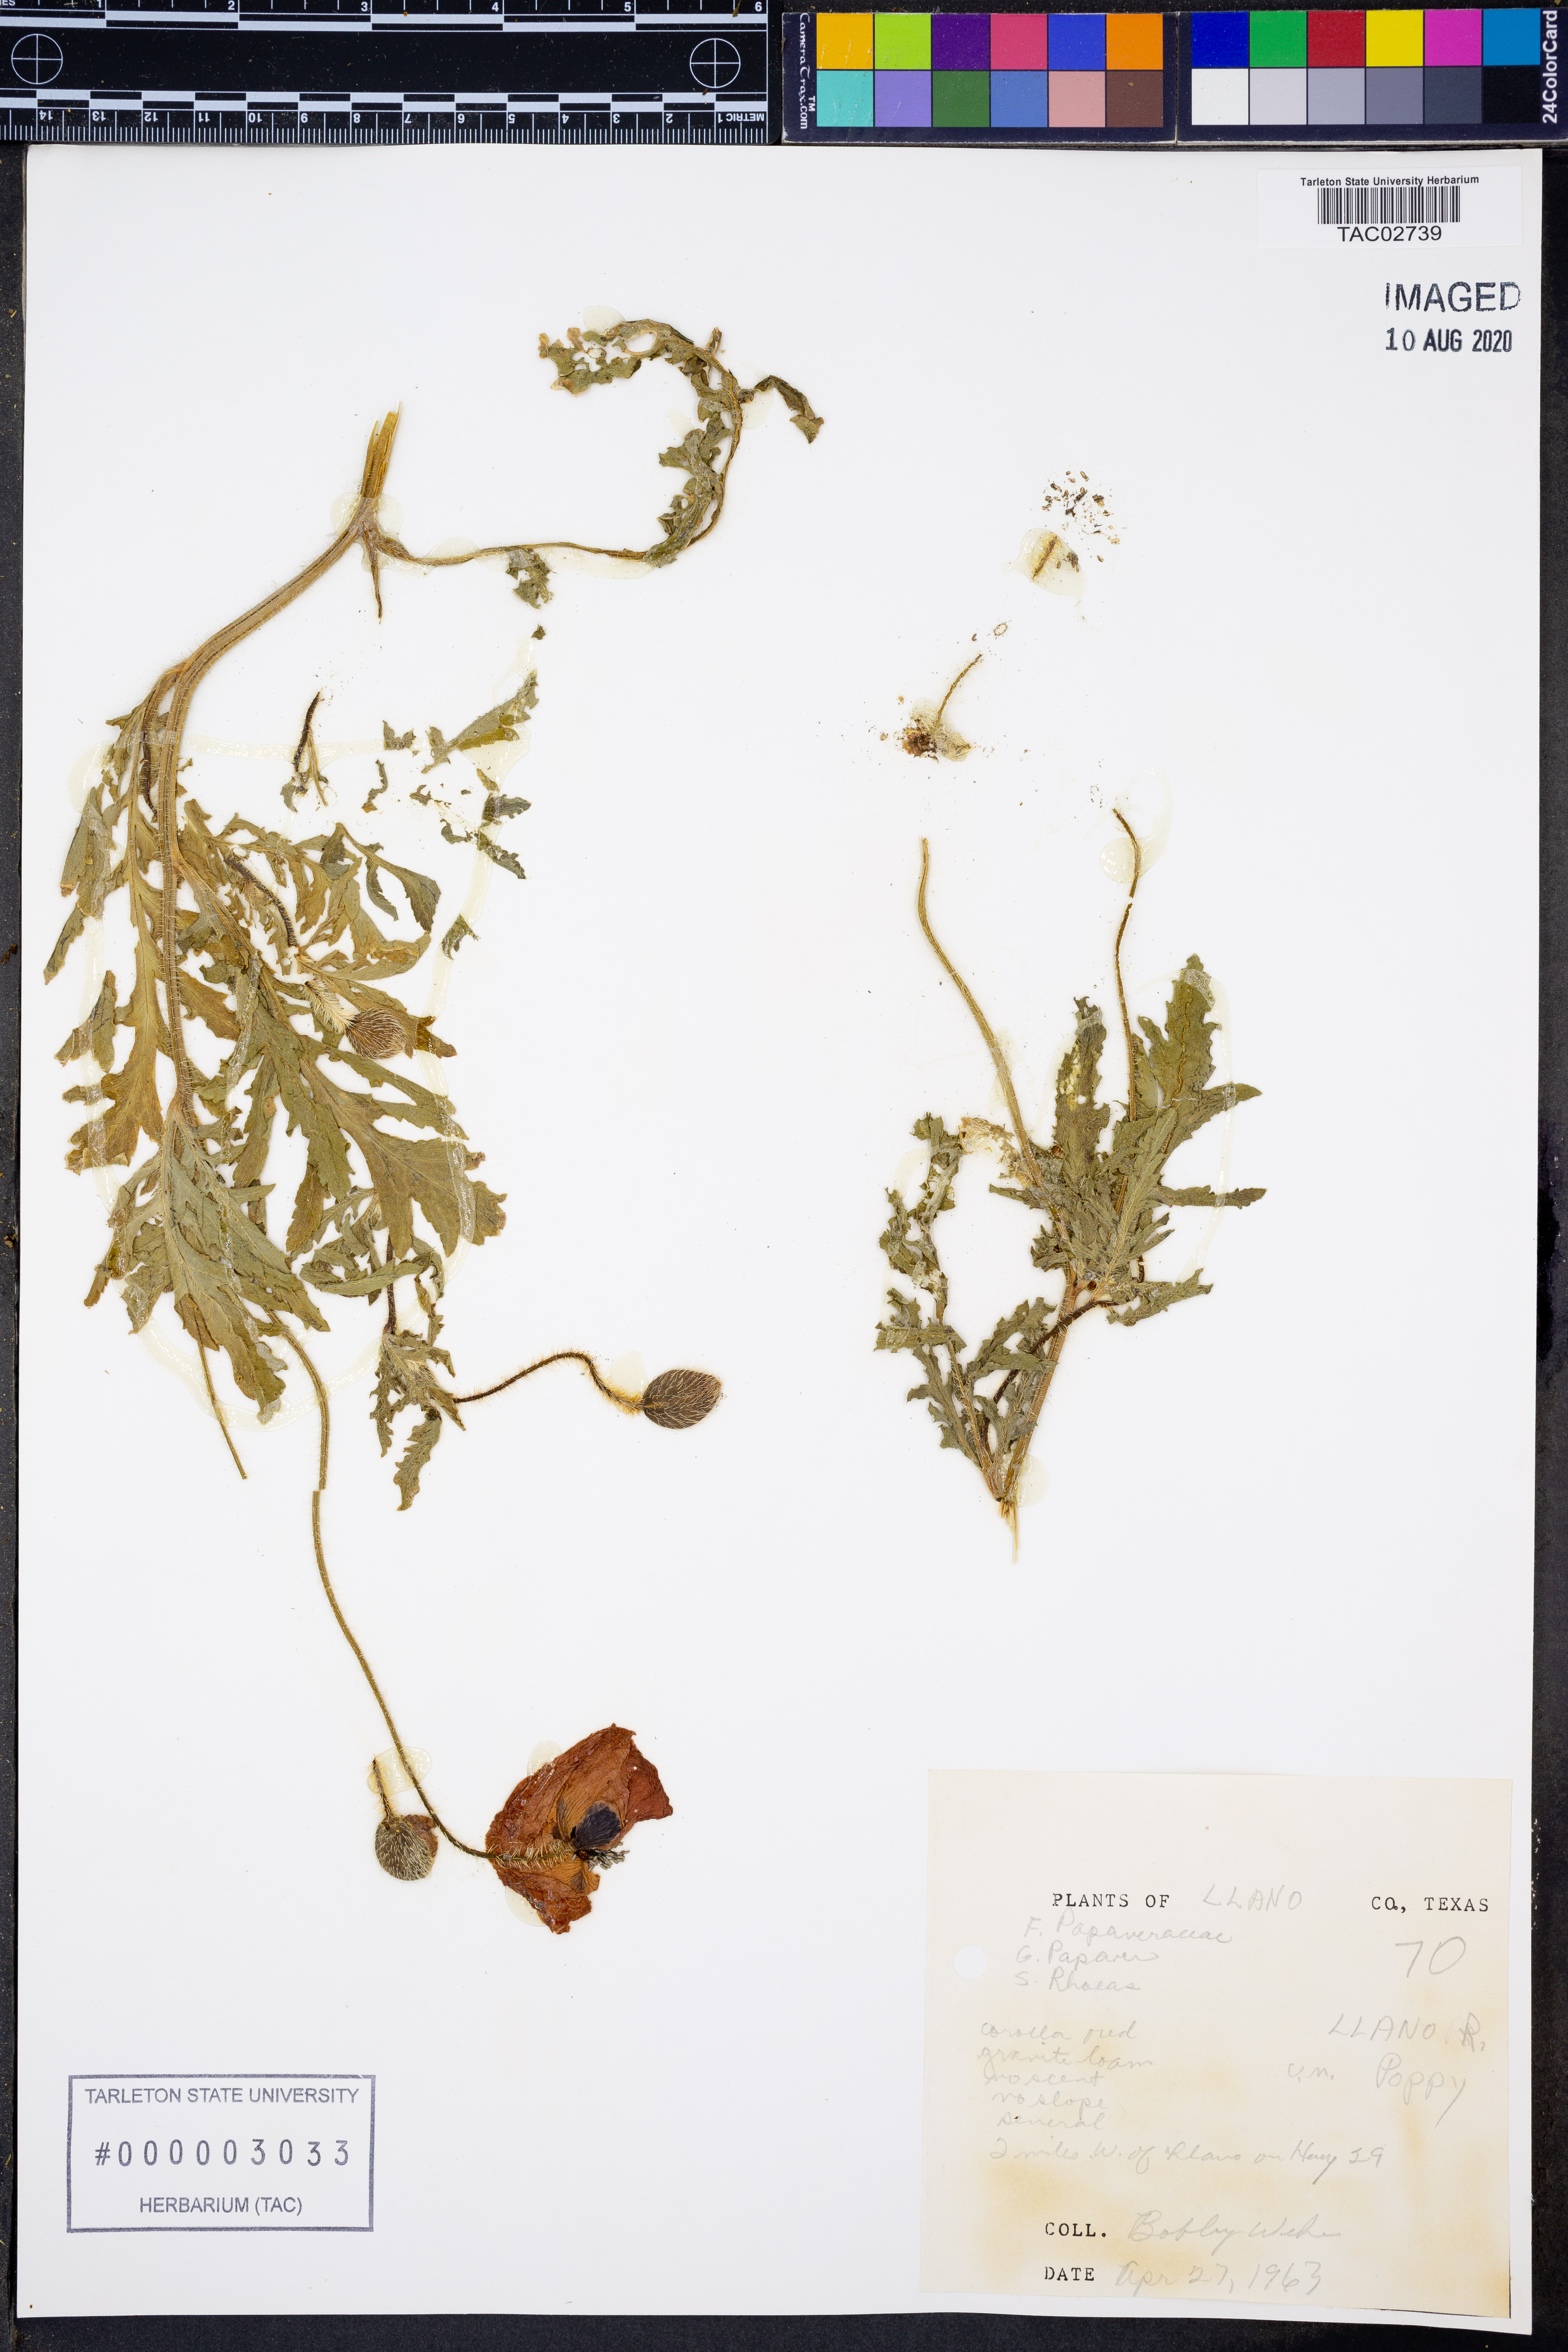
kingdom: Plantae
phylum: Tracheophyta
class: Magnoliopsida
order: Ranunculales
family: Papaveraceae
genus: Papaver
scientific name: Papaver rhoeas
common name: Corn poppy
